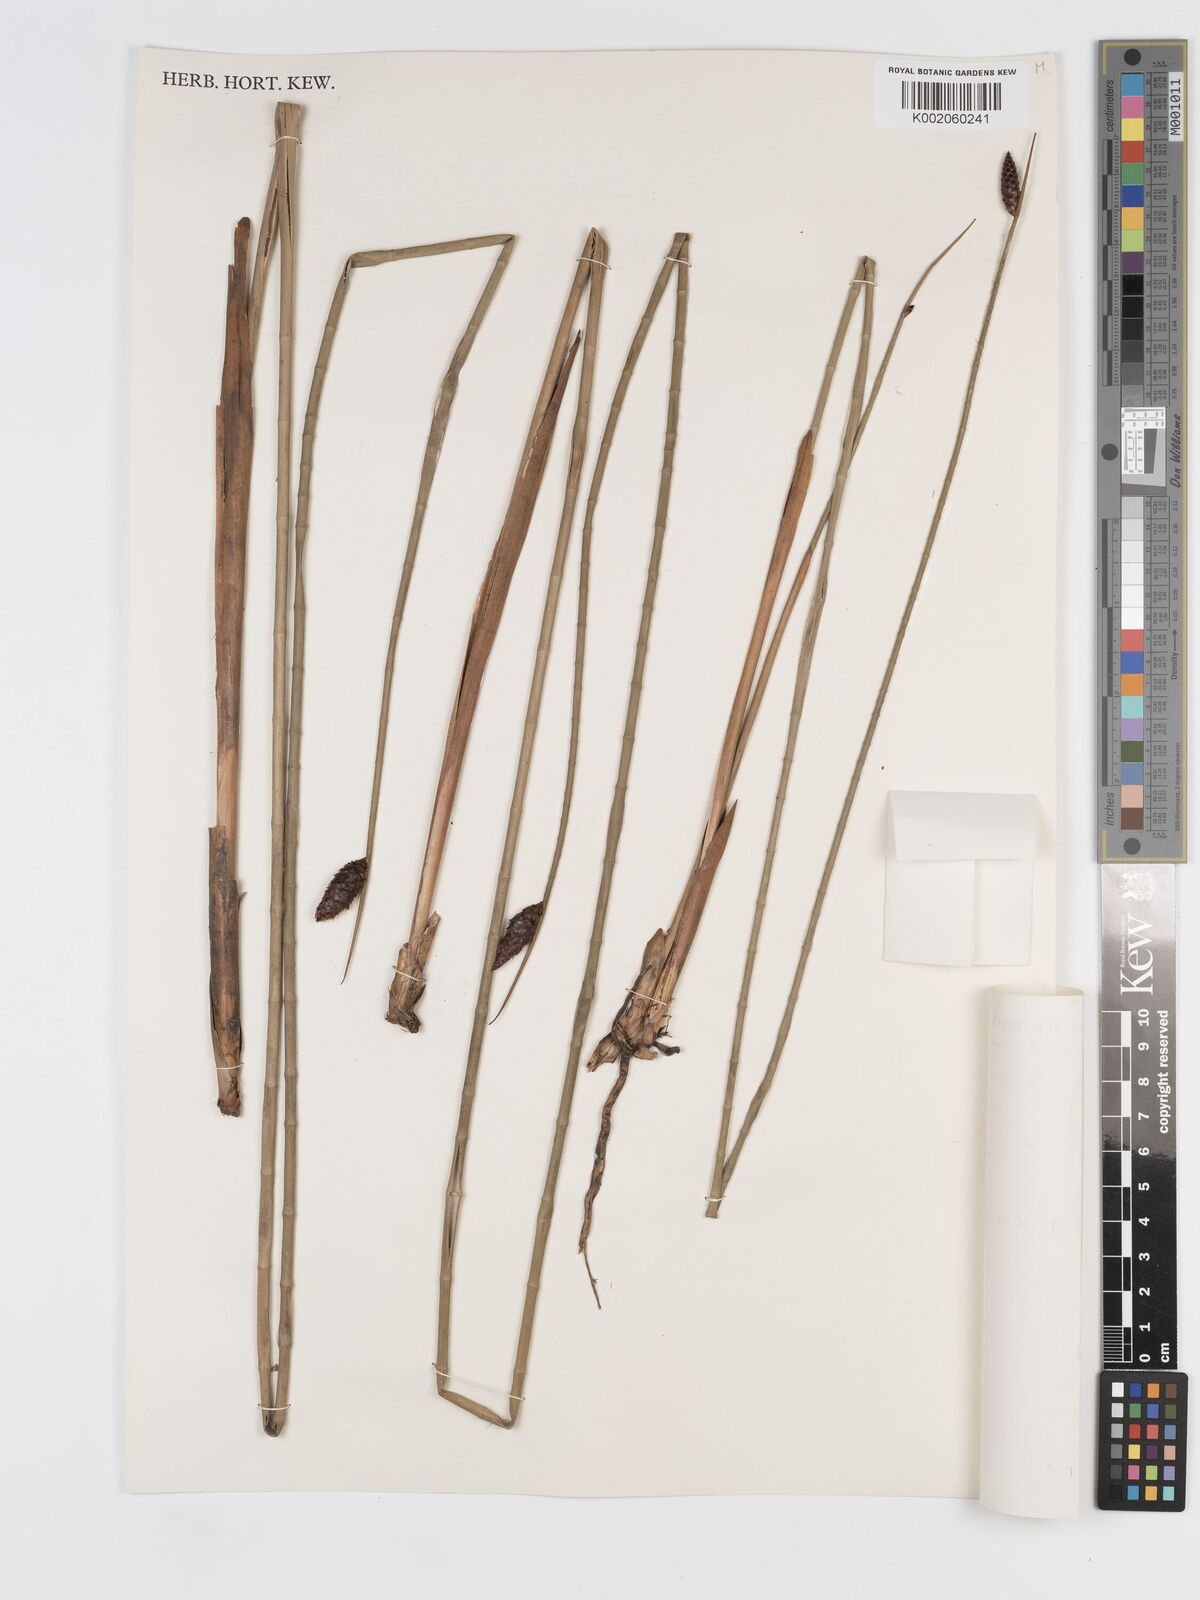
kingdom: Plantae
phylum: Tracheophyta
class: Liliopsida
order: Poales
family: Cyperaceae
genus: Lepironia
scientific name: Lepironia articulata
